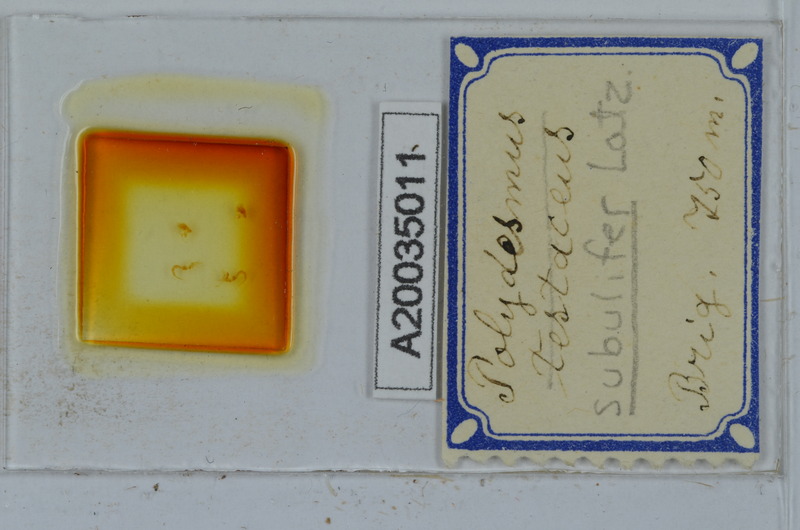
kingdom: Animalia
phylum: Arthropoda
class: Diplopoda
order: Polydesmida
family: Polydesmidae
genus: Polydesmus
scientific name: Polydesmus subulifer
